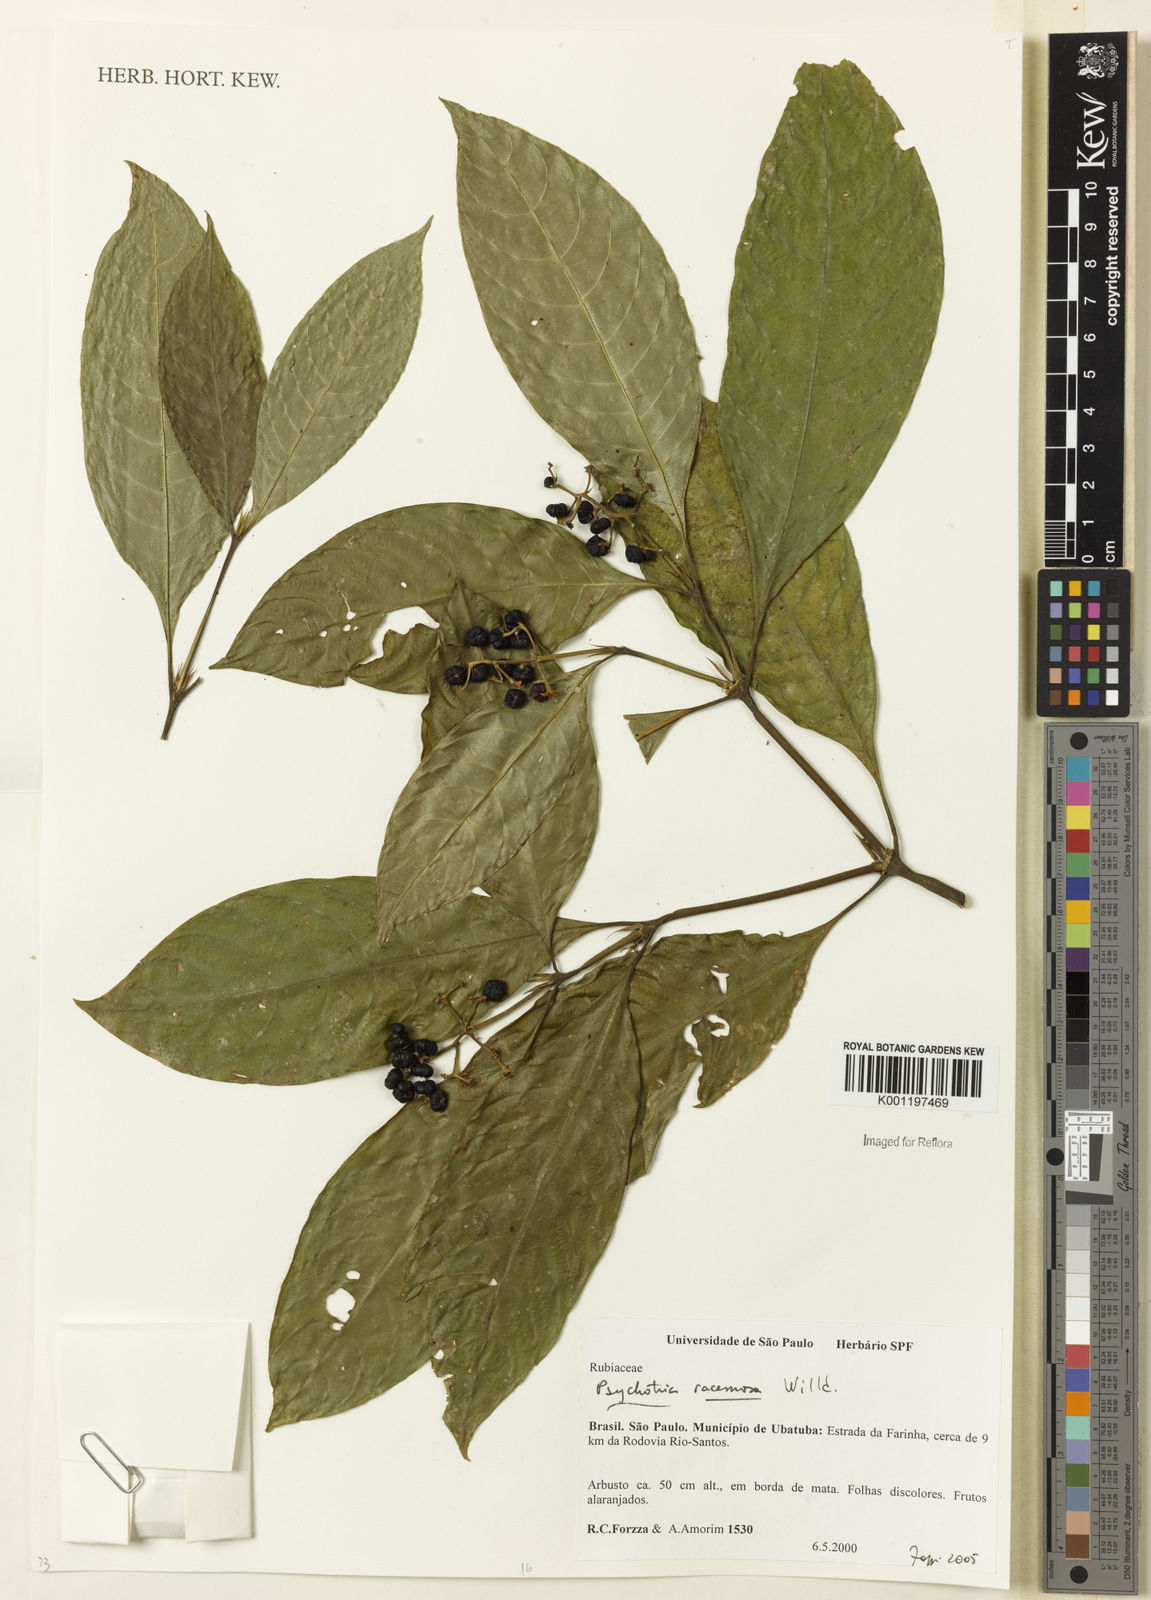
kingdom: Plantae
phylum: Tracheophyta
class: Magnoliopsida
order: Gentianales
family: Rubiaceae
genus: Palicourea
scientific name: Palicourea racemosa
